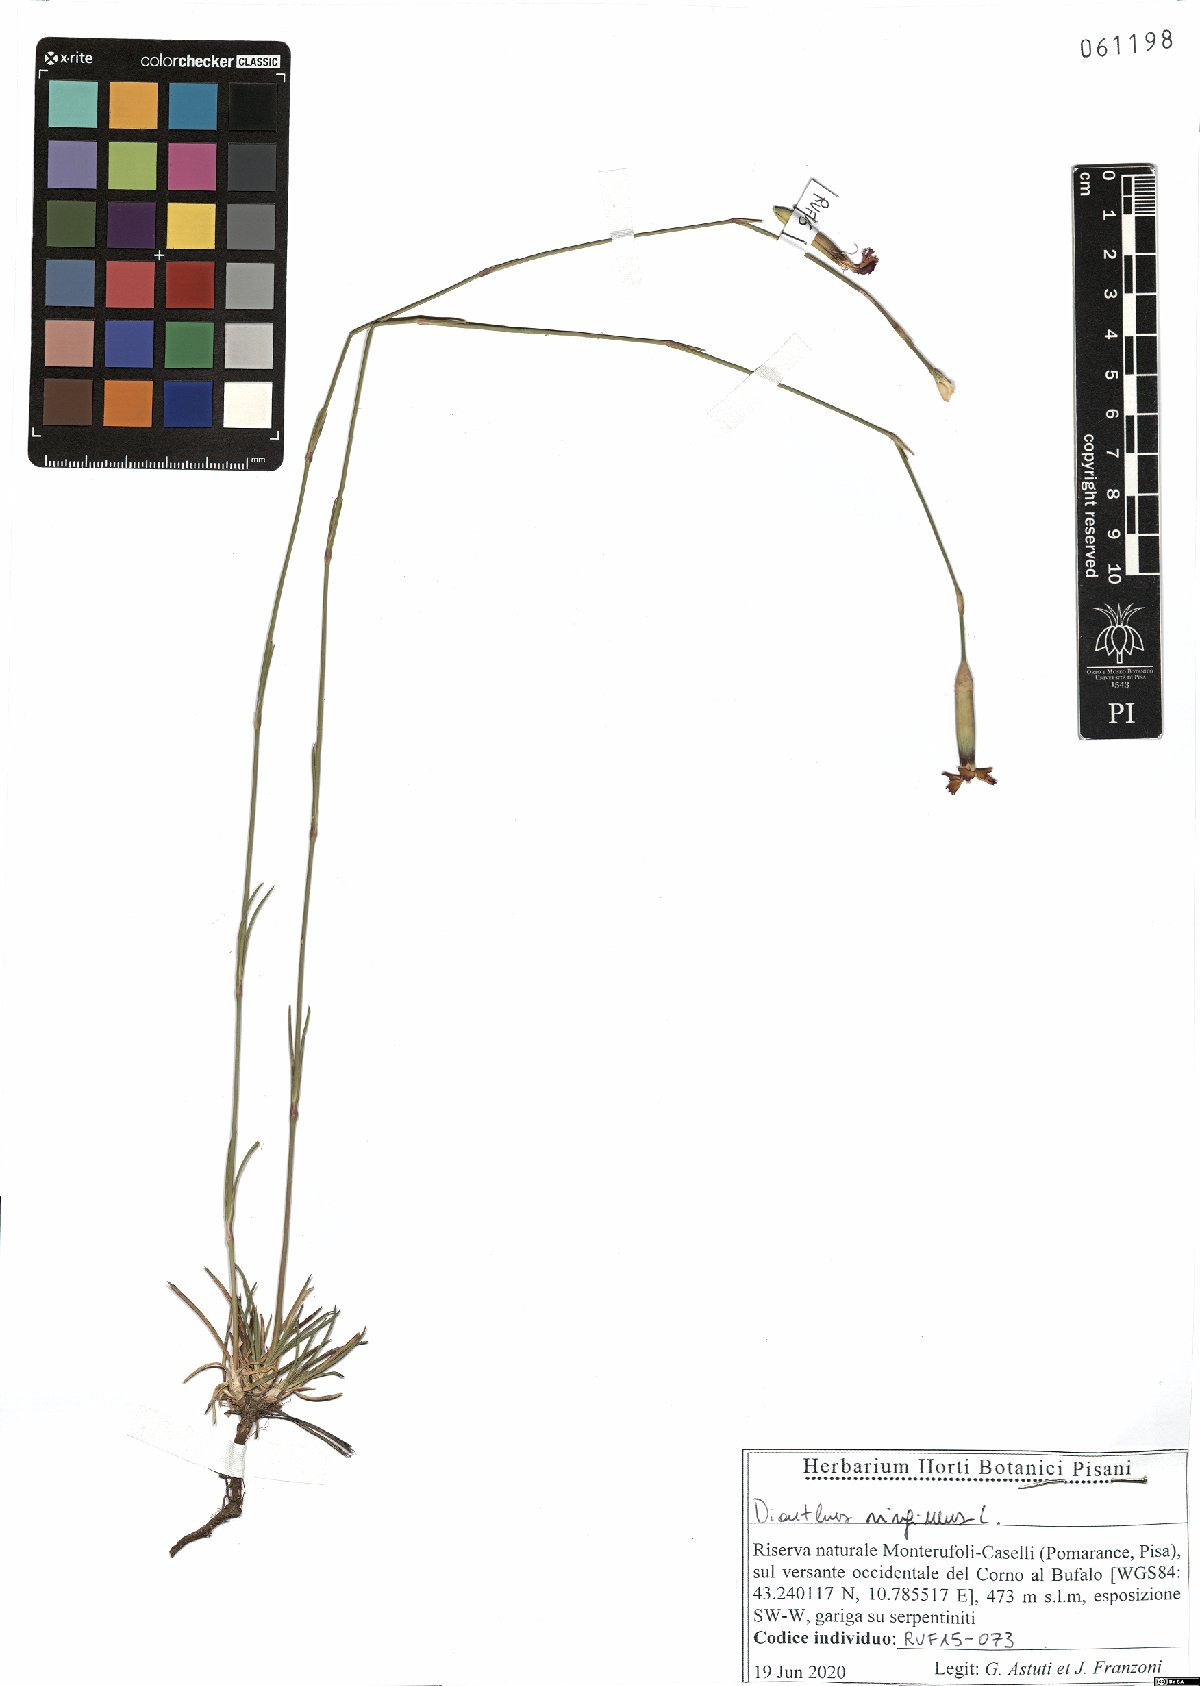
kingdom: Plantae
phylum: Tracheophyta
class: Magnoliopsida
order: Caryophyllales
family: Caryophyllaceae
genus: Dianthus
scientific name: Dianthus virgineus
